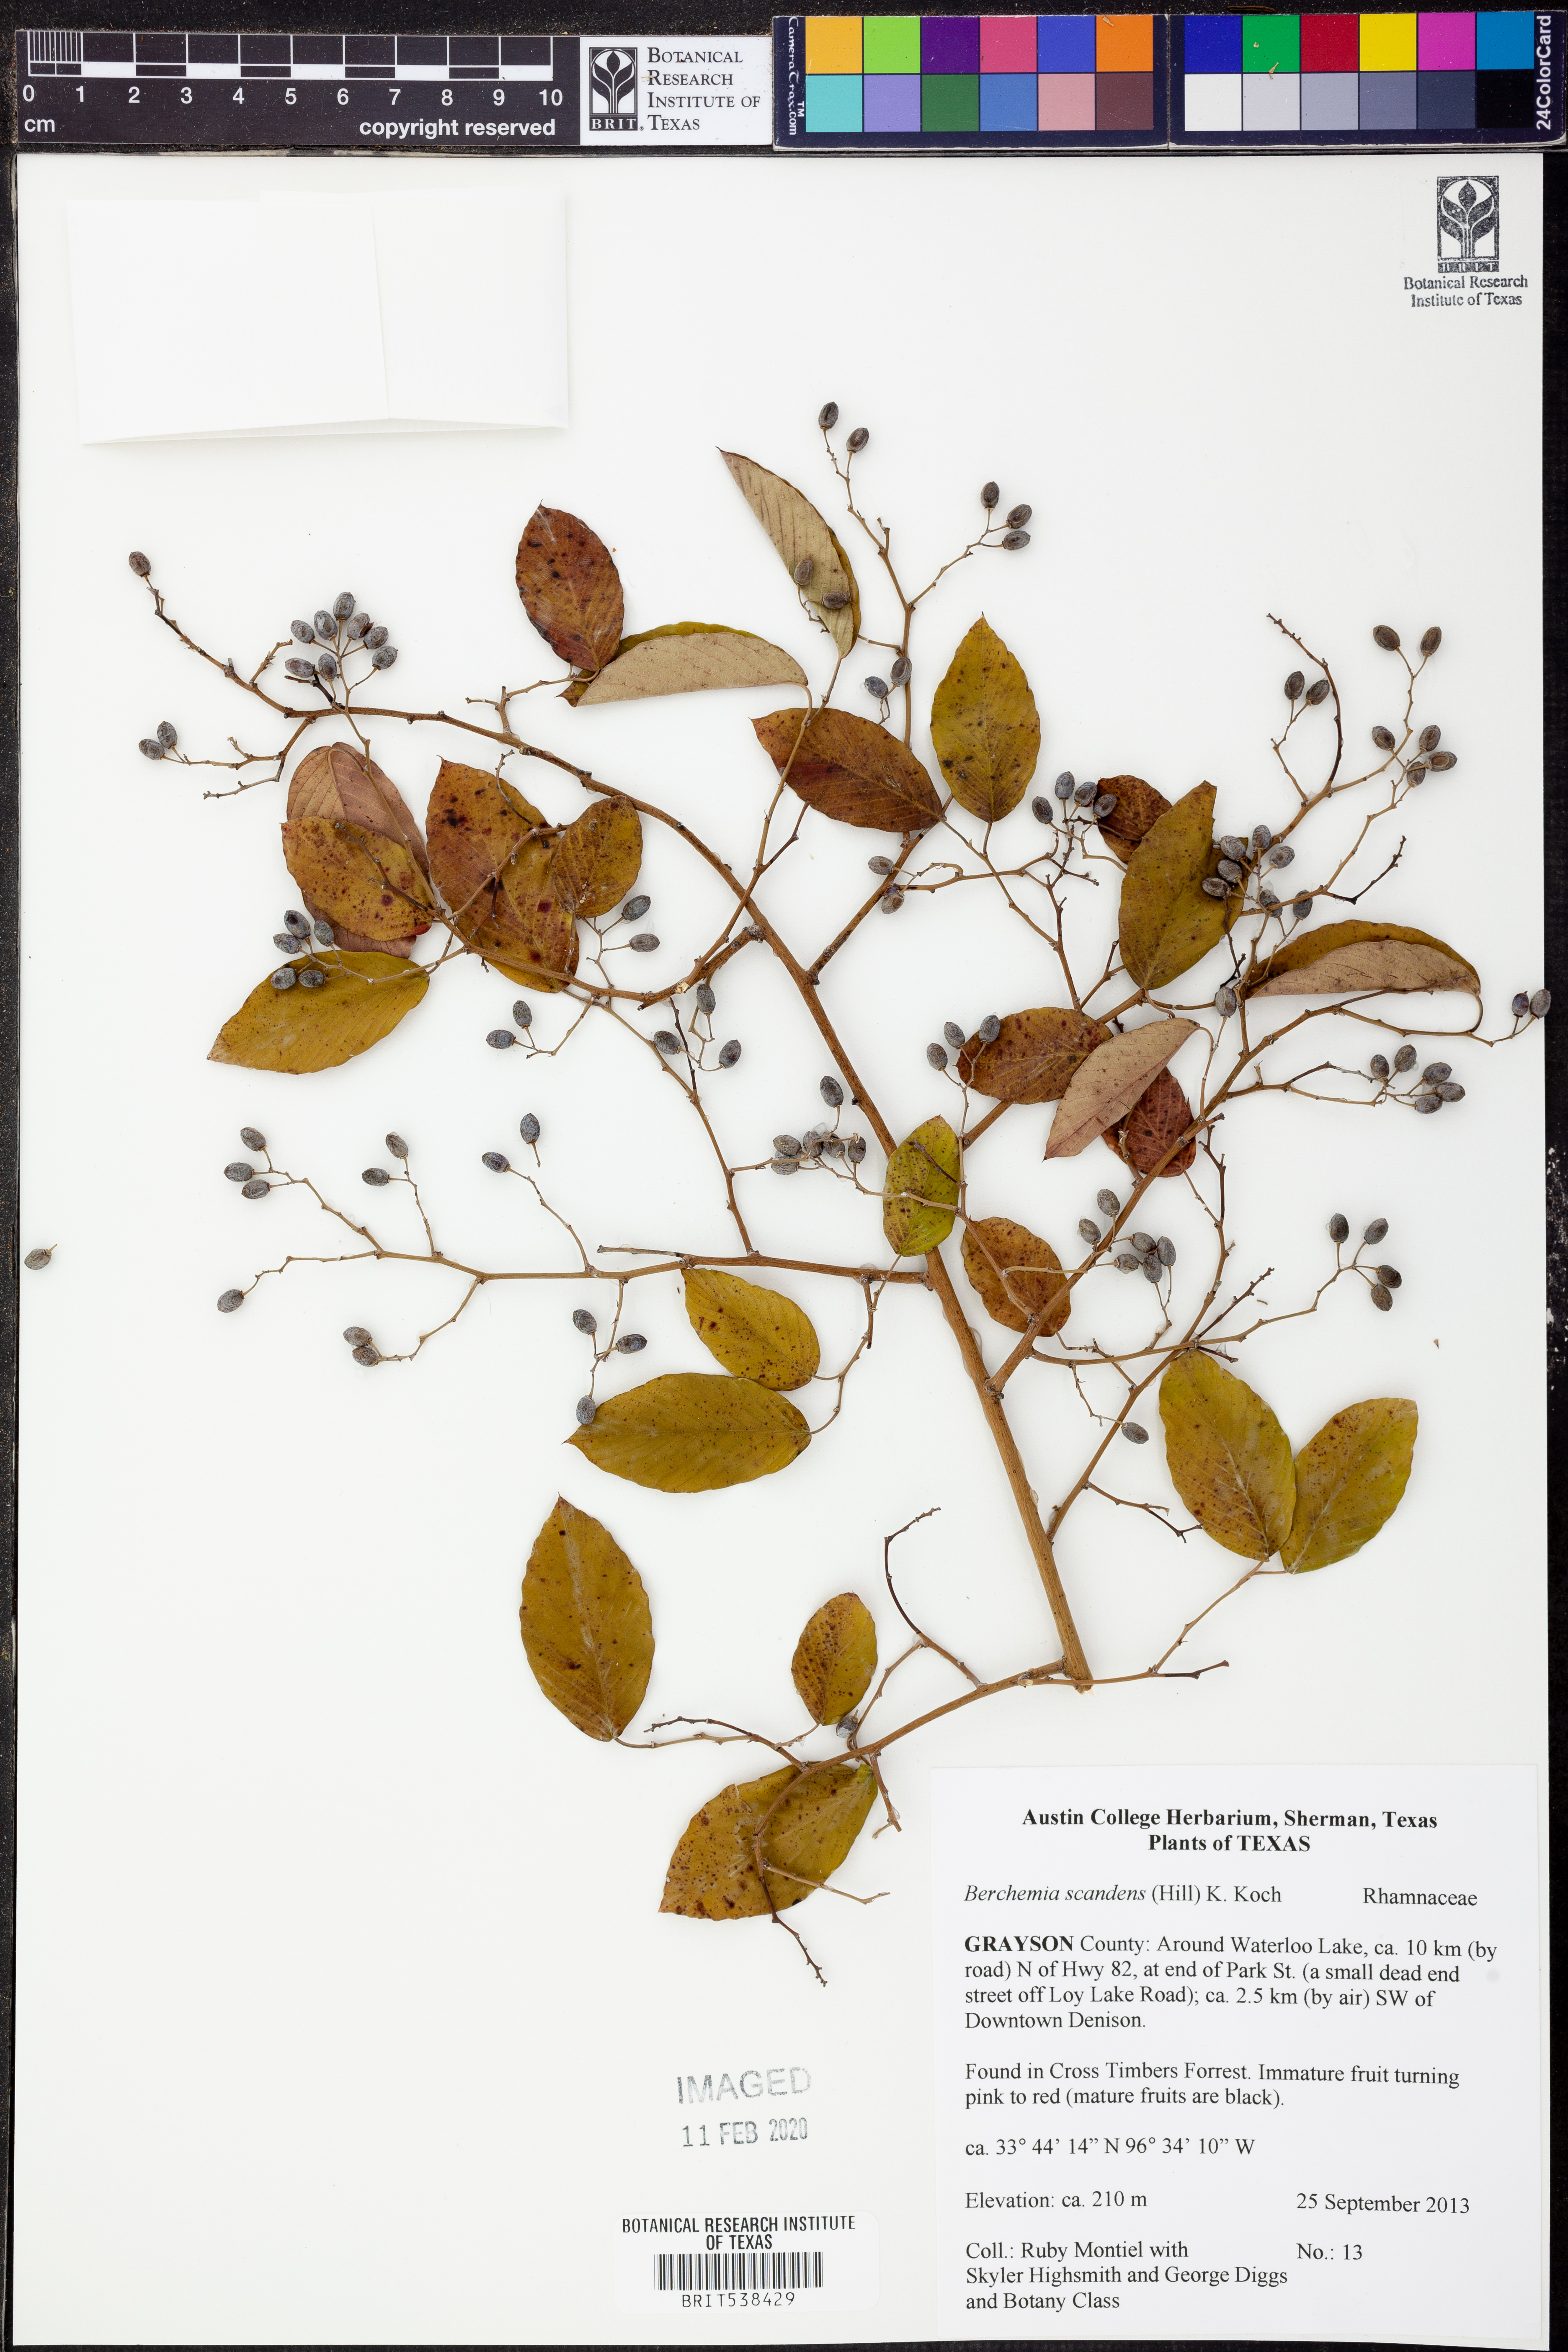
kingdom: Plantae
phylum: Tracheophyta
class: Magnoliopsida
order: Rosales
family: Rhamnaceae
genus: Berchemia
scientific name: Berchemia scandens
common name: Supplejack
